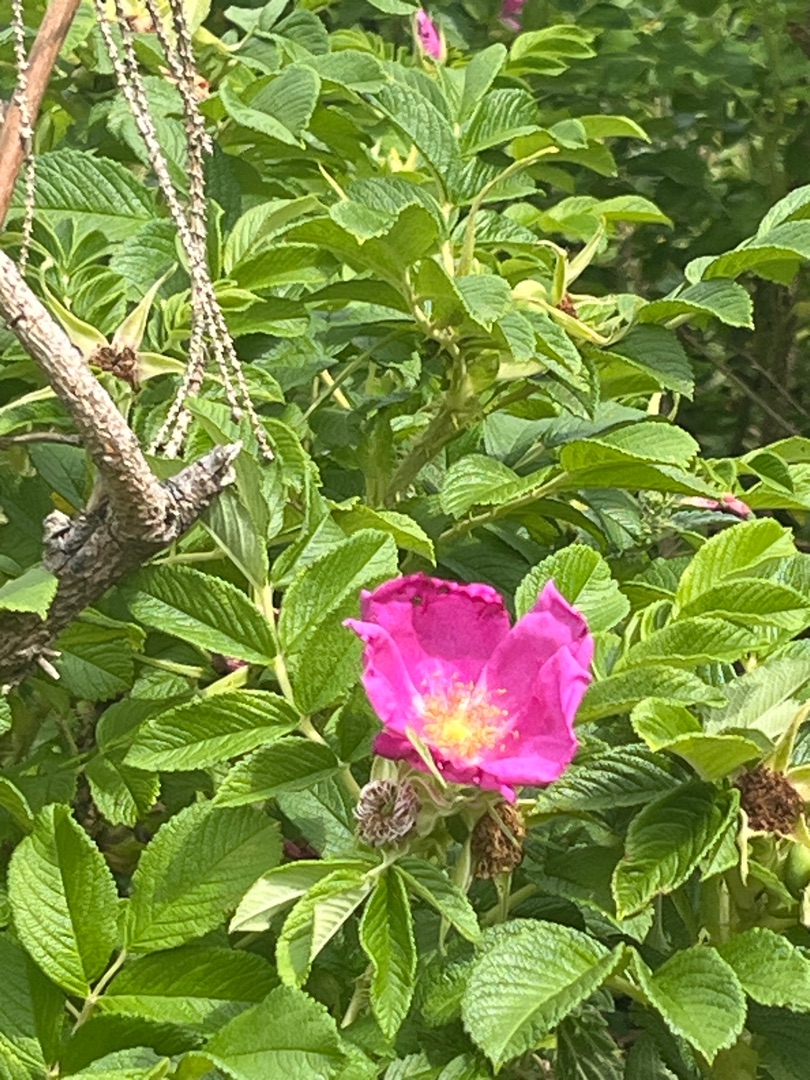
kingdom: Plantae
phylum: Tracheophyta
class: Magnoliopsida
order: Rosales
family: Rosaceae
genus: Rosa
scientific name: Rosa rugosa
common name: Rynket rose
